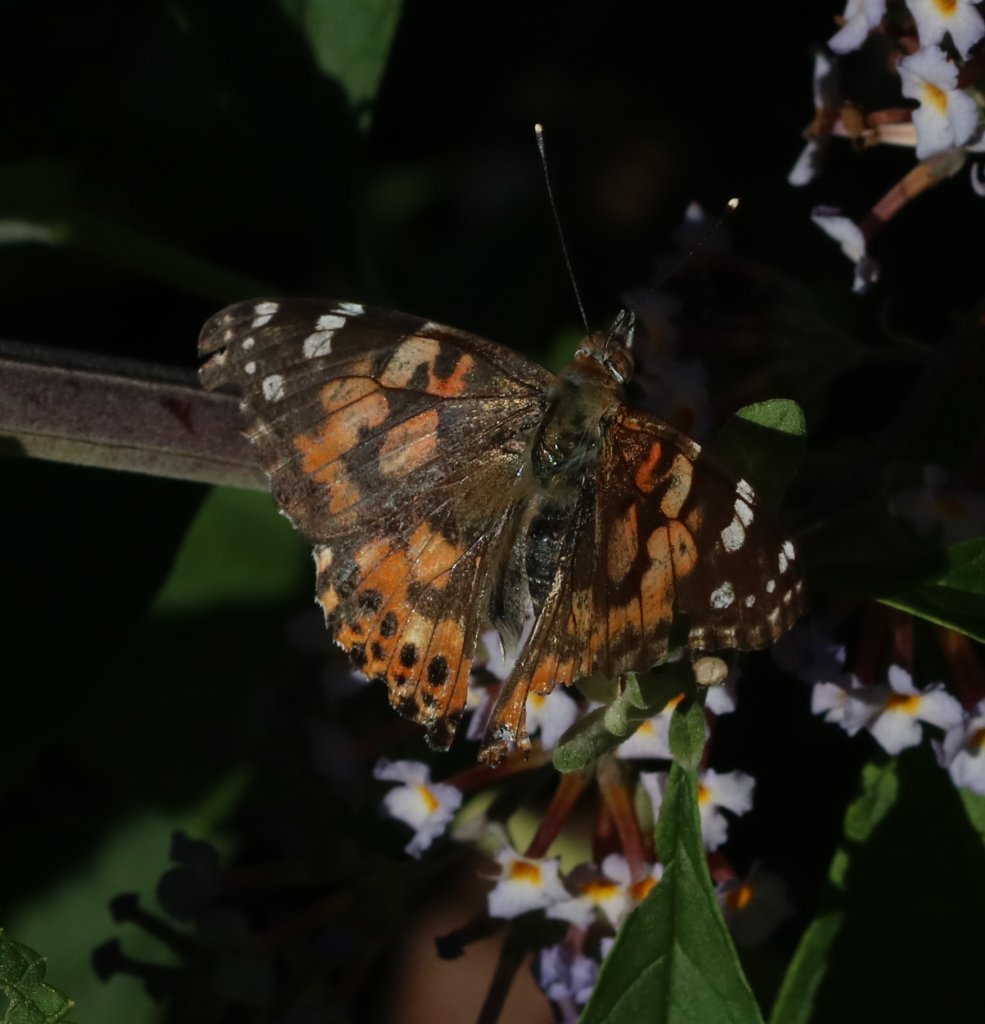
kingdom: Animalia
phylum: Arthropoda
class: Insecta
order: Lepidoptera
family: Nymphalidae
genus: Vanessa
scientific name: Vanessa cardui
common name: Painted Lady
